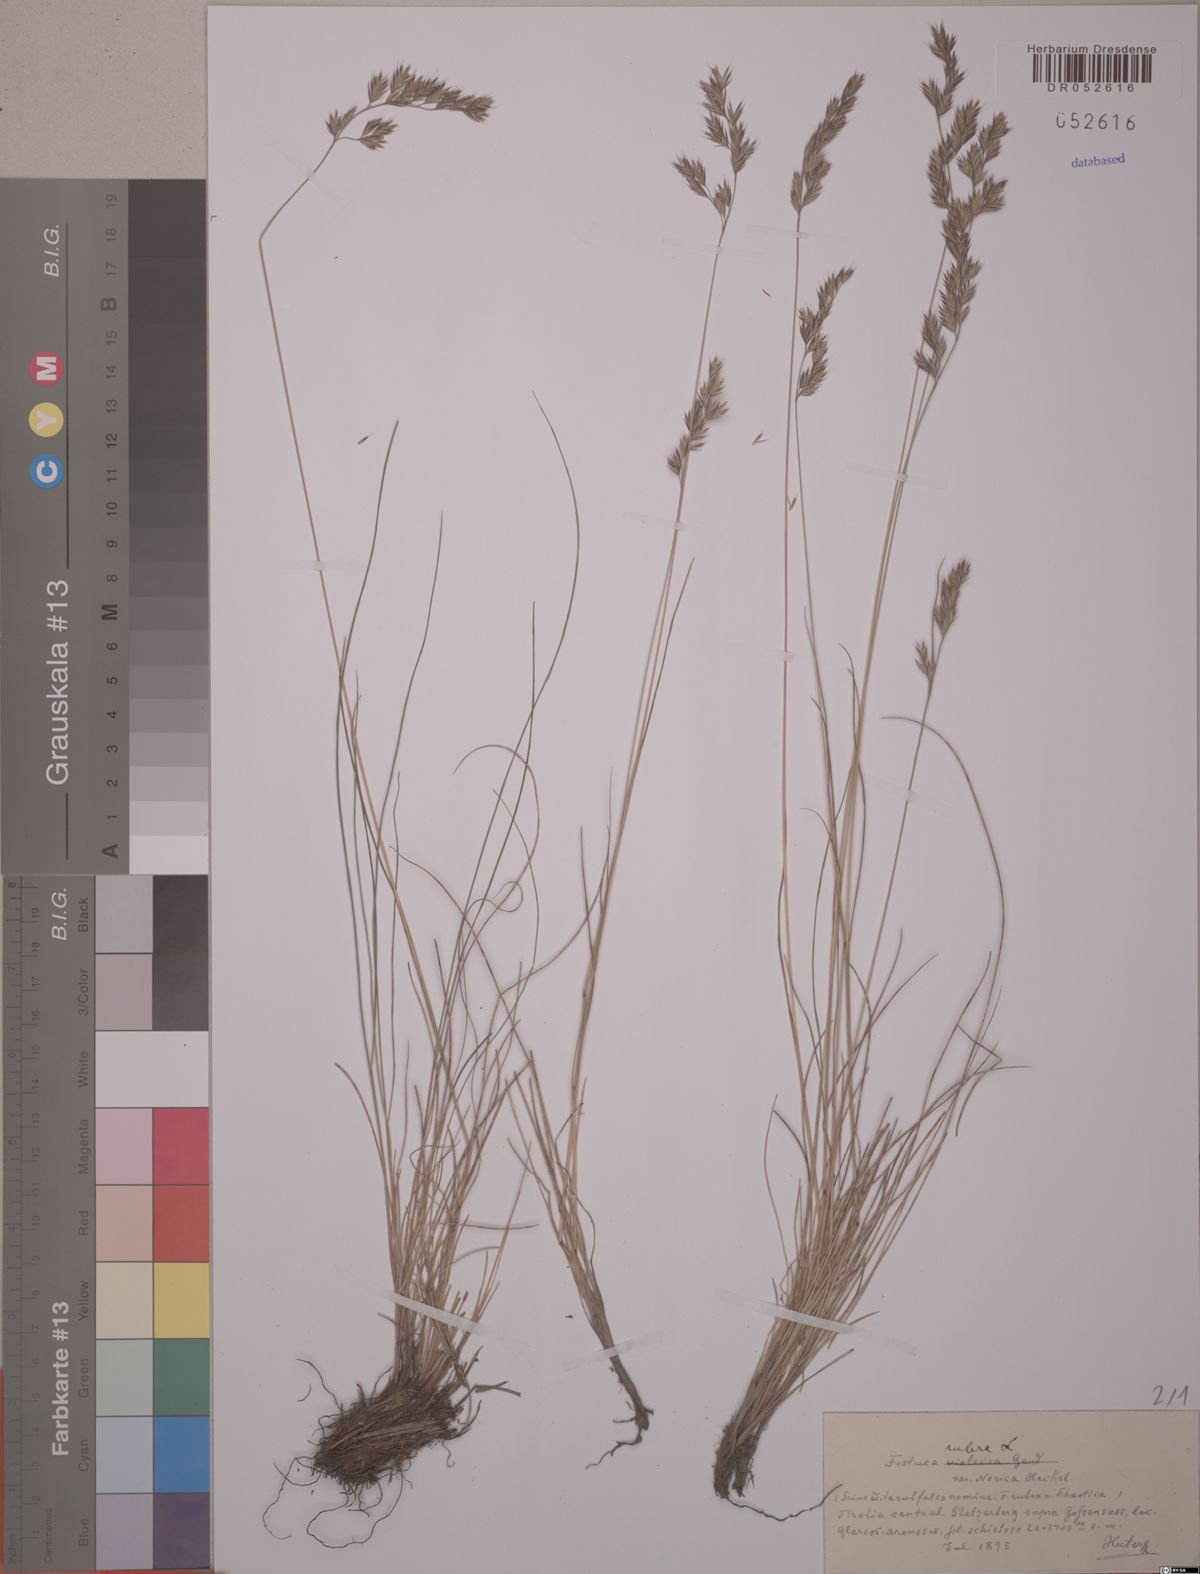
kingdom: Plantae
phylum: Tracheophyta
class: Liliopsida
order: Poales
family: Poaceae
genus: Festuca
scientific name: Festuca rubra
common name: Red fescue
